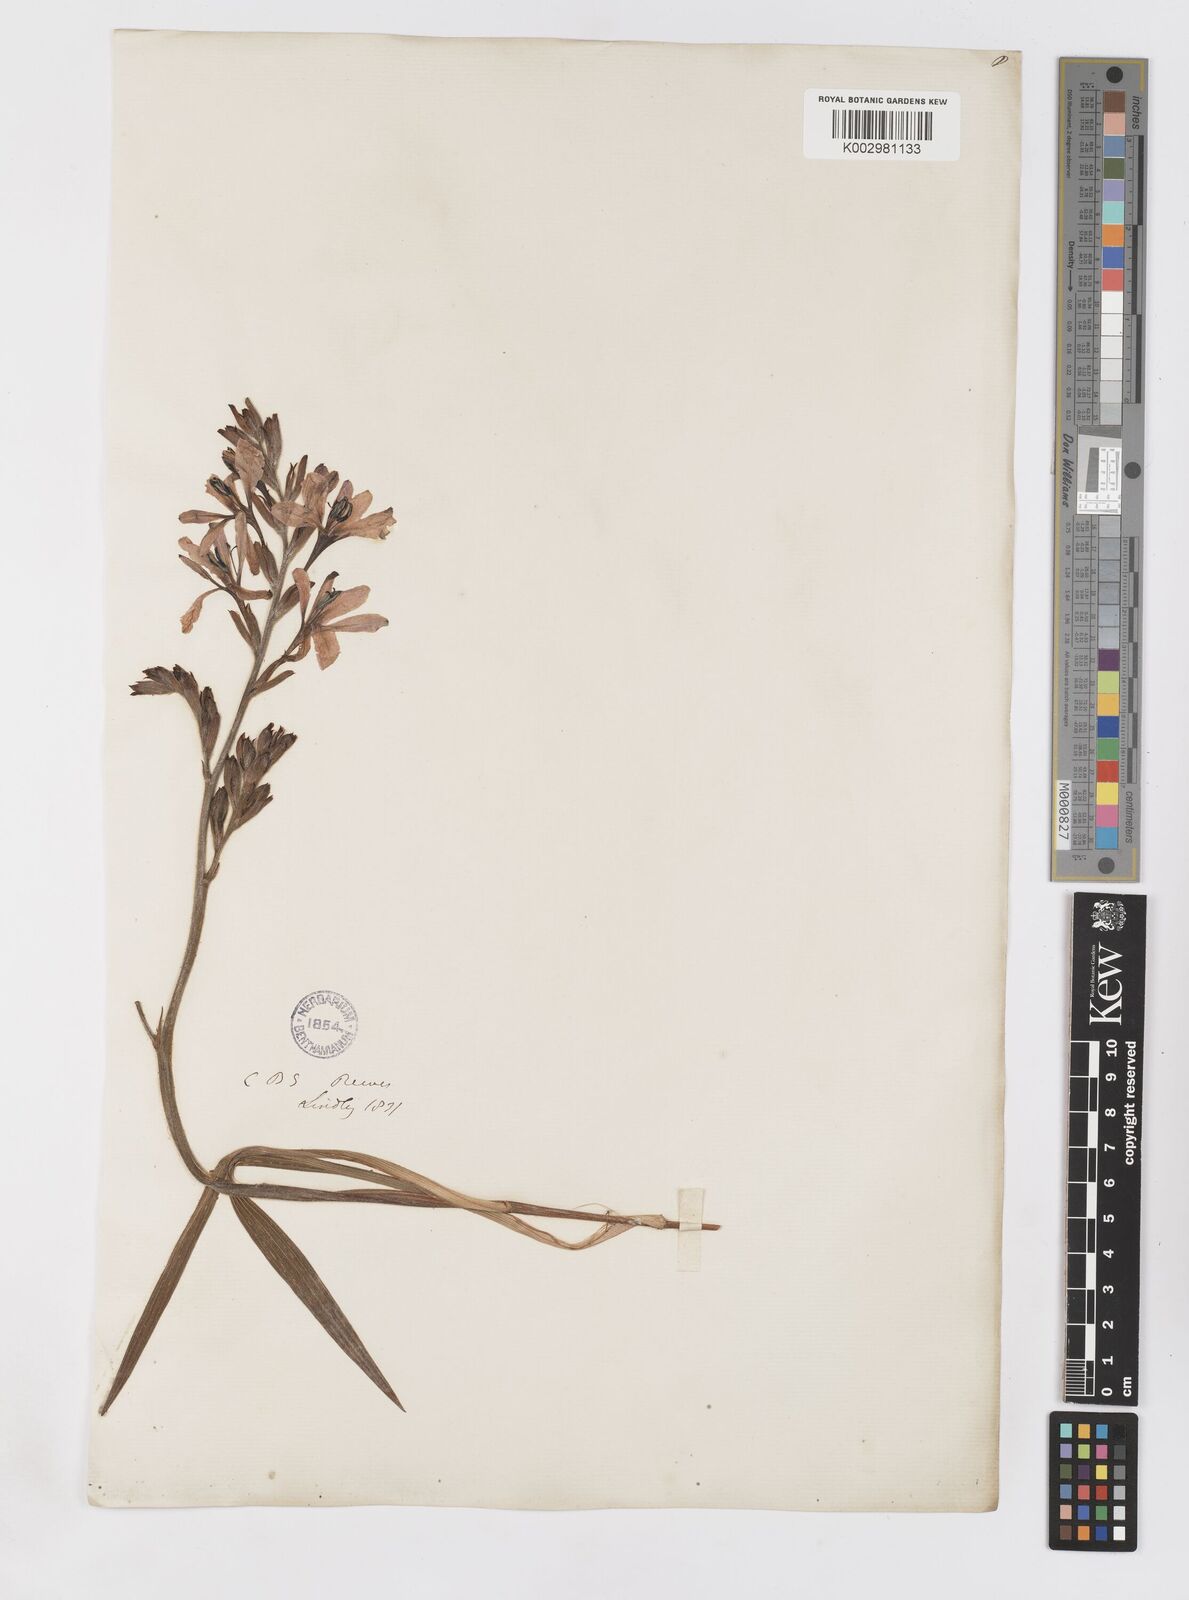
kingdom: Plantae
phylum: Tracheophyta
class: Liliopsida
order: Asparagales
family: Iridaceae
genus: Babiana
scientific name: Babiana
